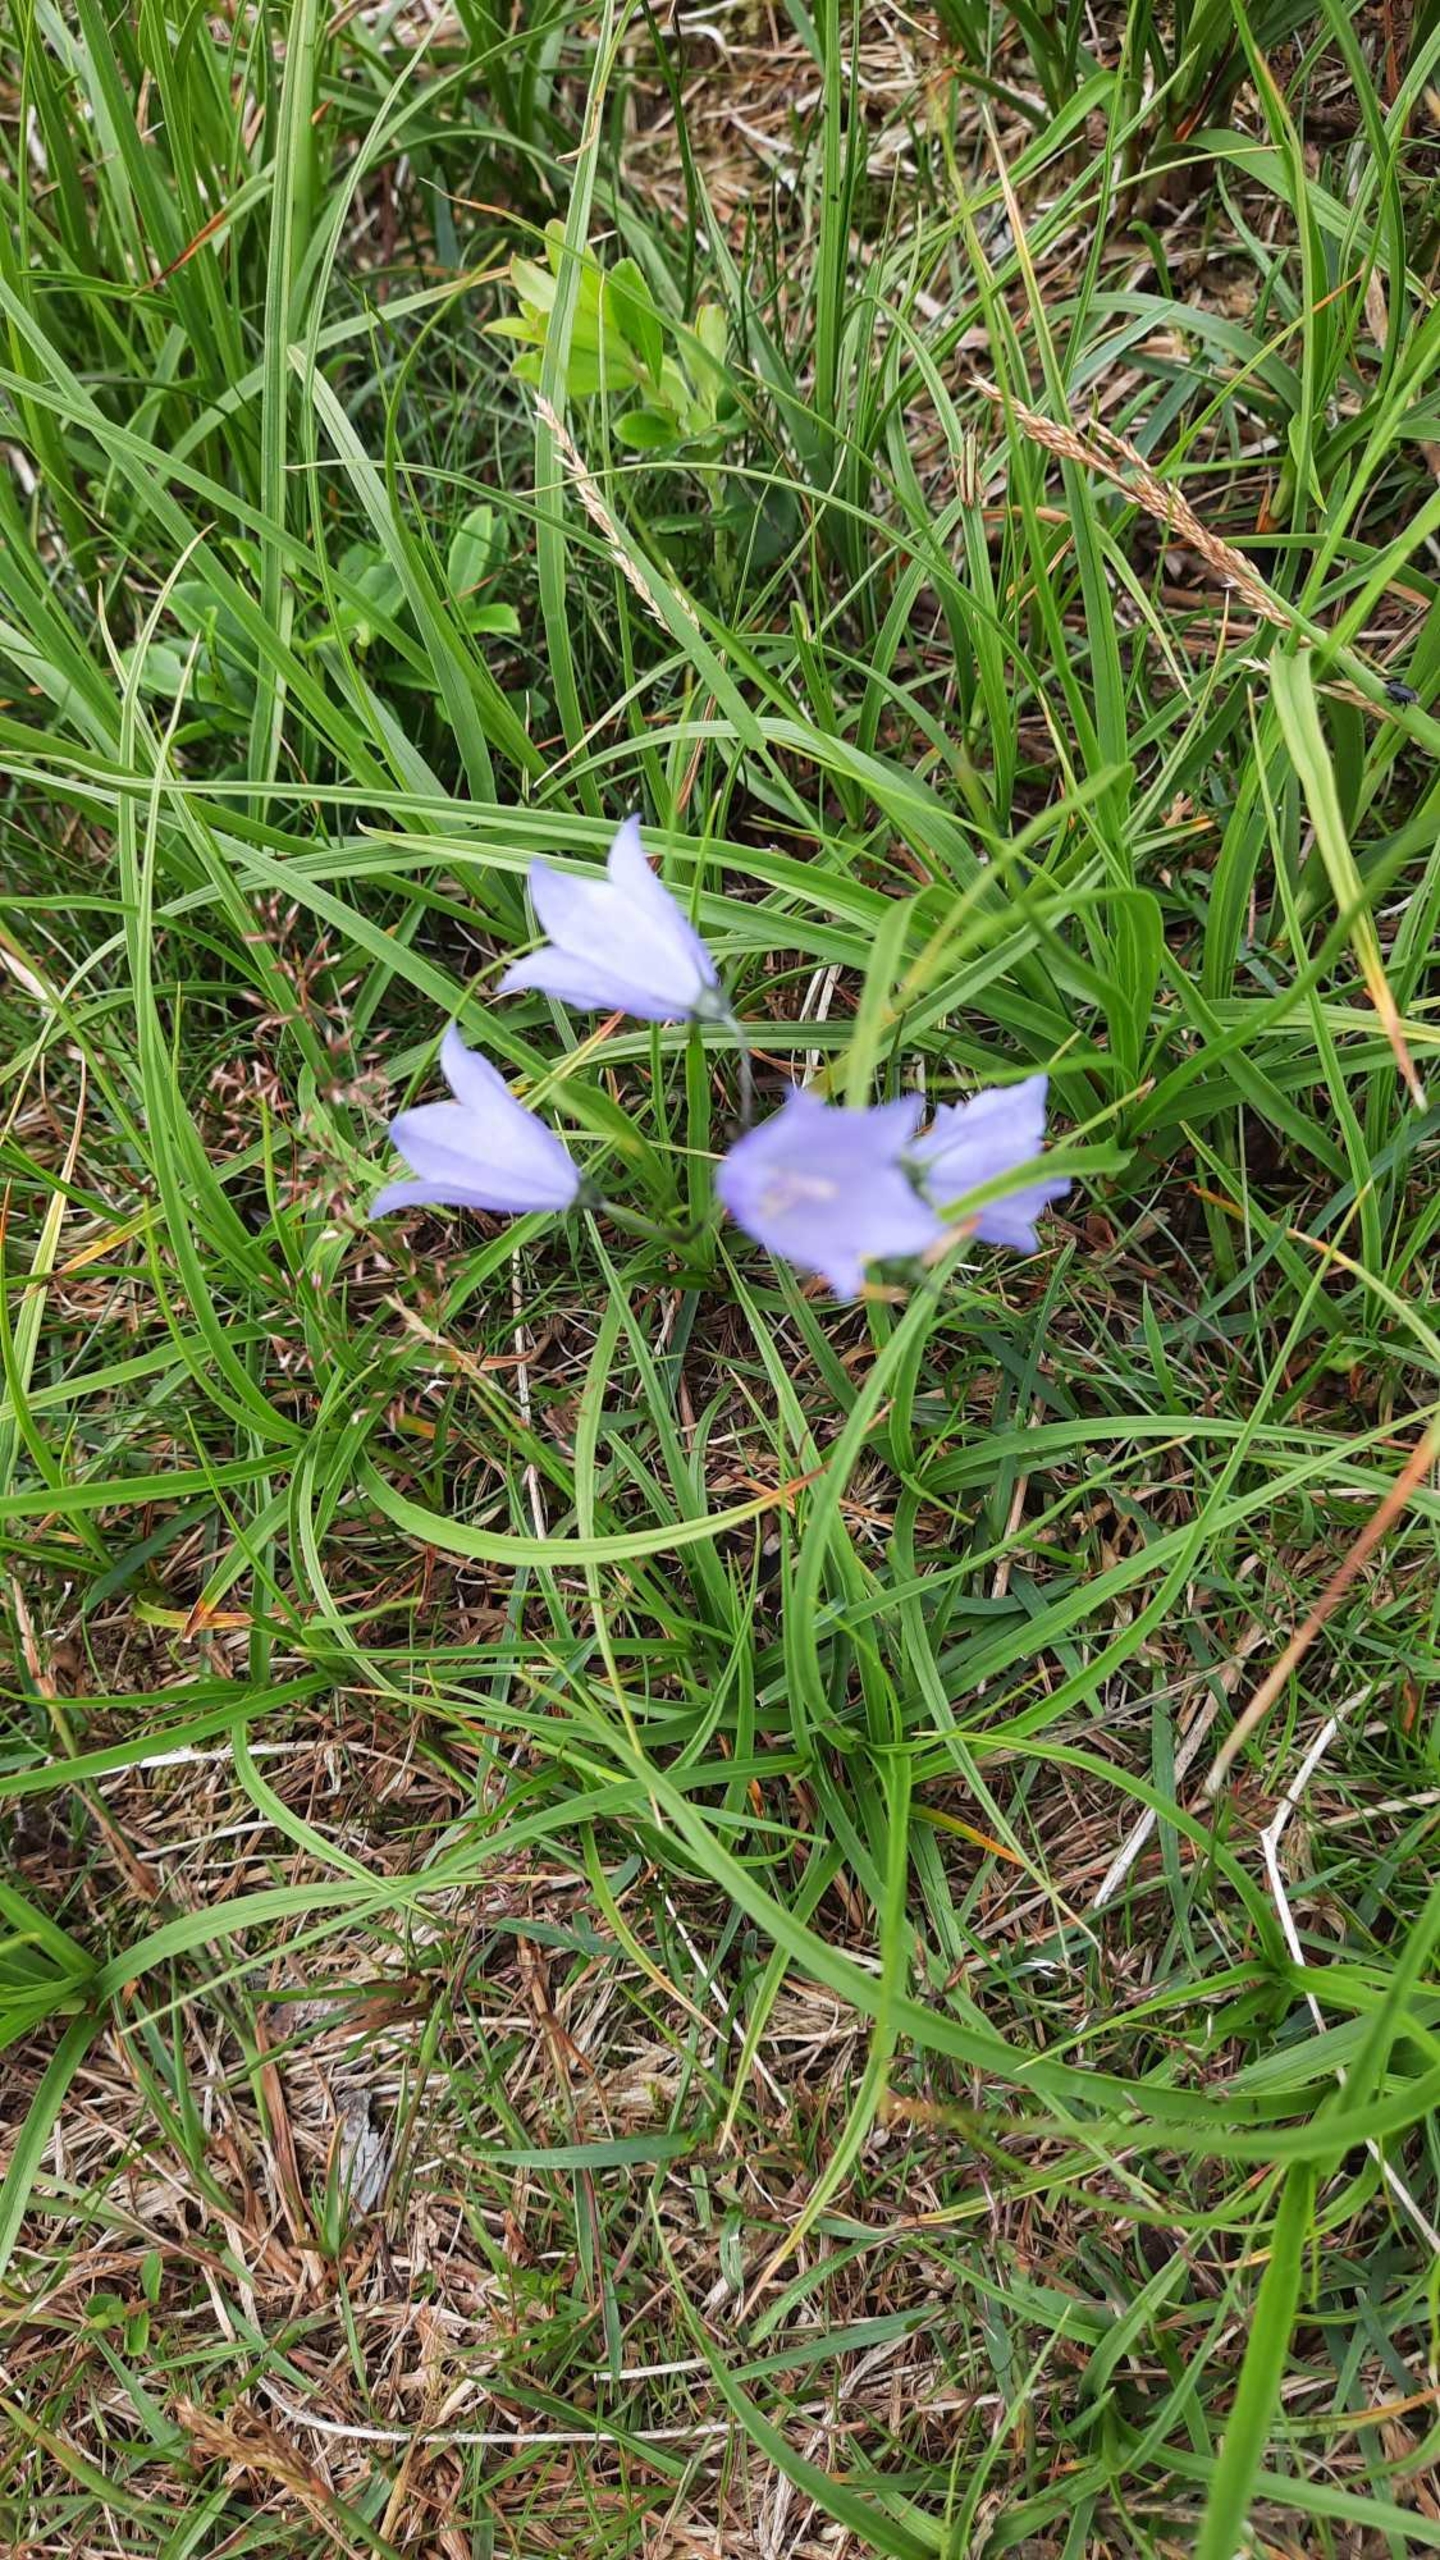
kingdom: Plantae
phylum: Tracheophyta
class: Magnoliopsida
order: Asterales
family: Campanulaceae
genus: Campanula
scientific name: Campanula rotundifolia
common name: Liden klokke
